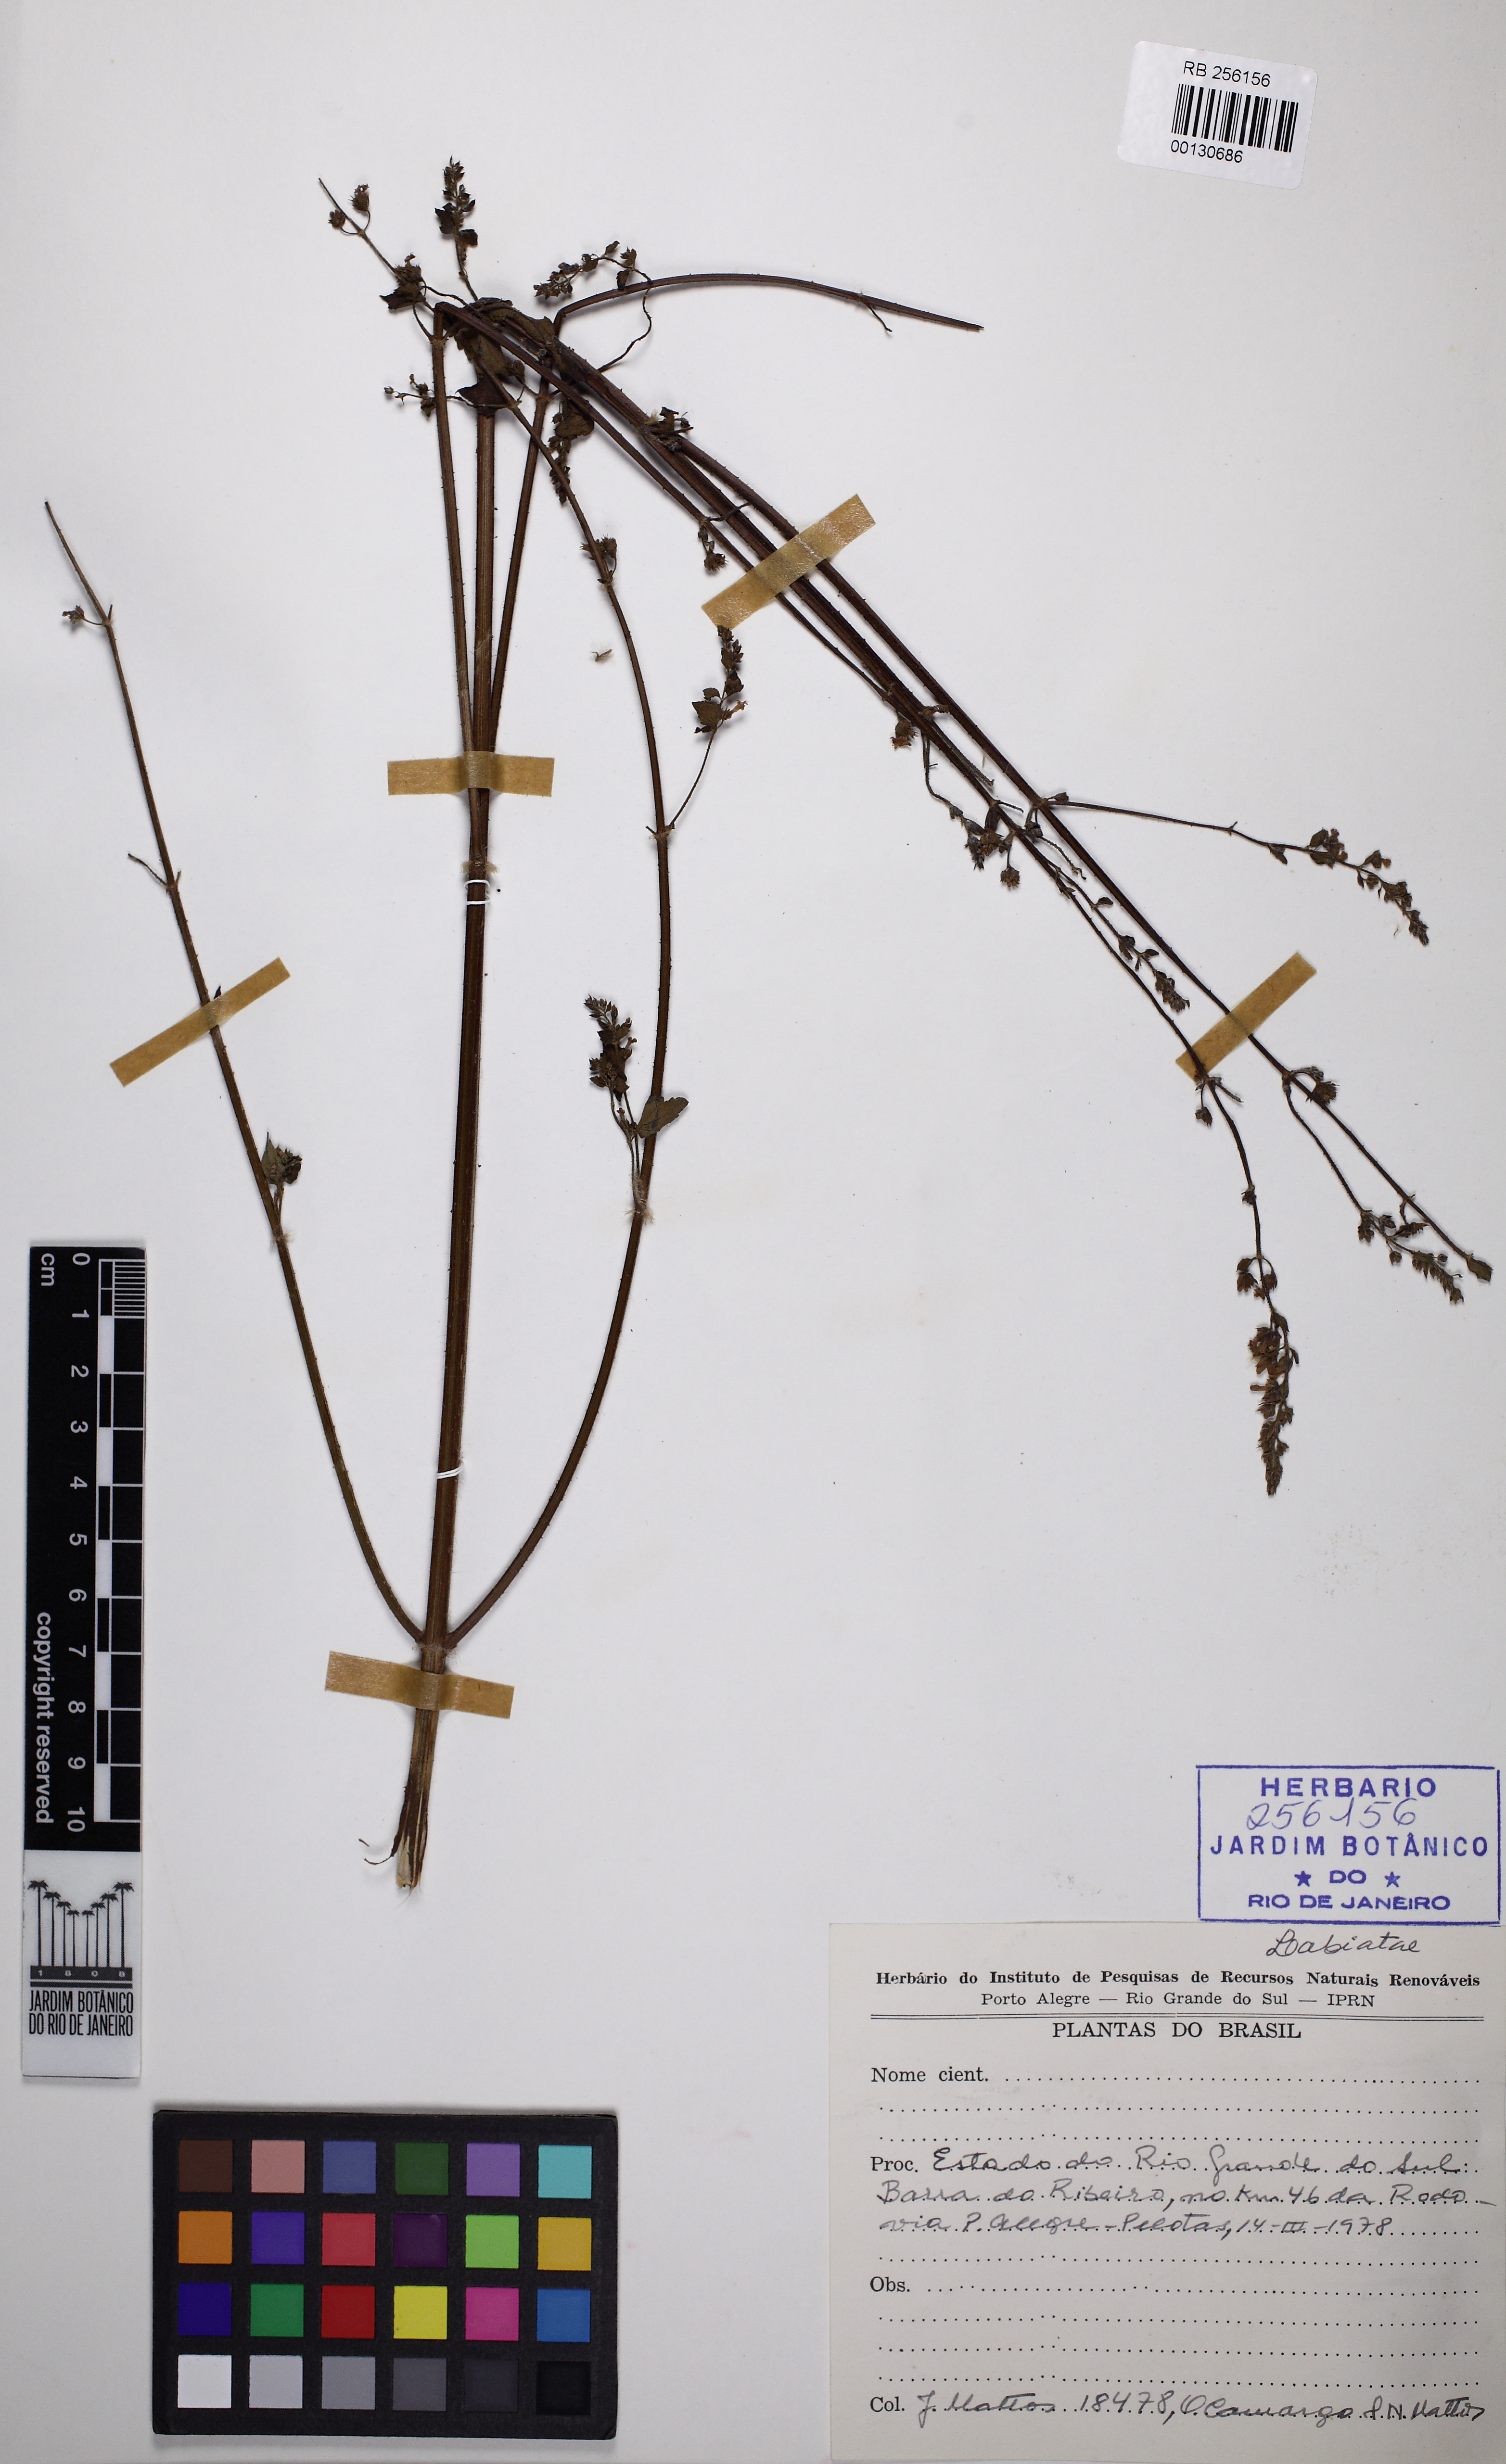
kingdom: Plantae
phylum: Tracheophyta
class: Magnoliopsida
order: Lamiales
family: Lamiaceae
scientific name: Lamiaceae
